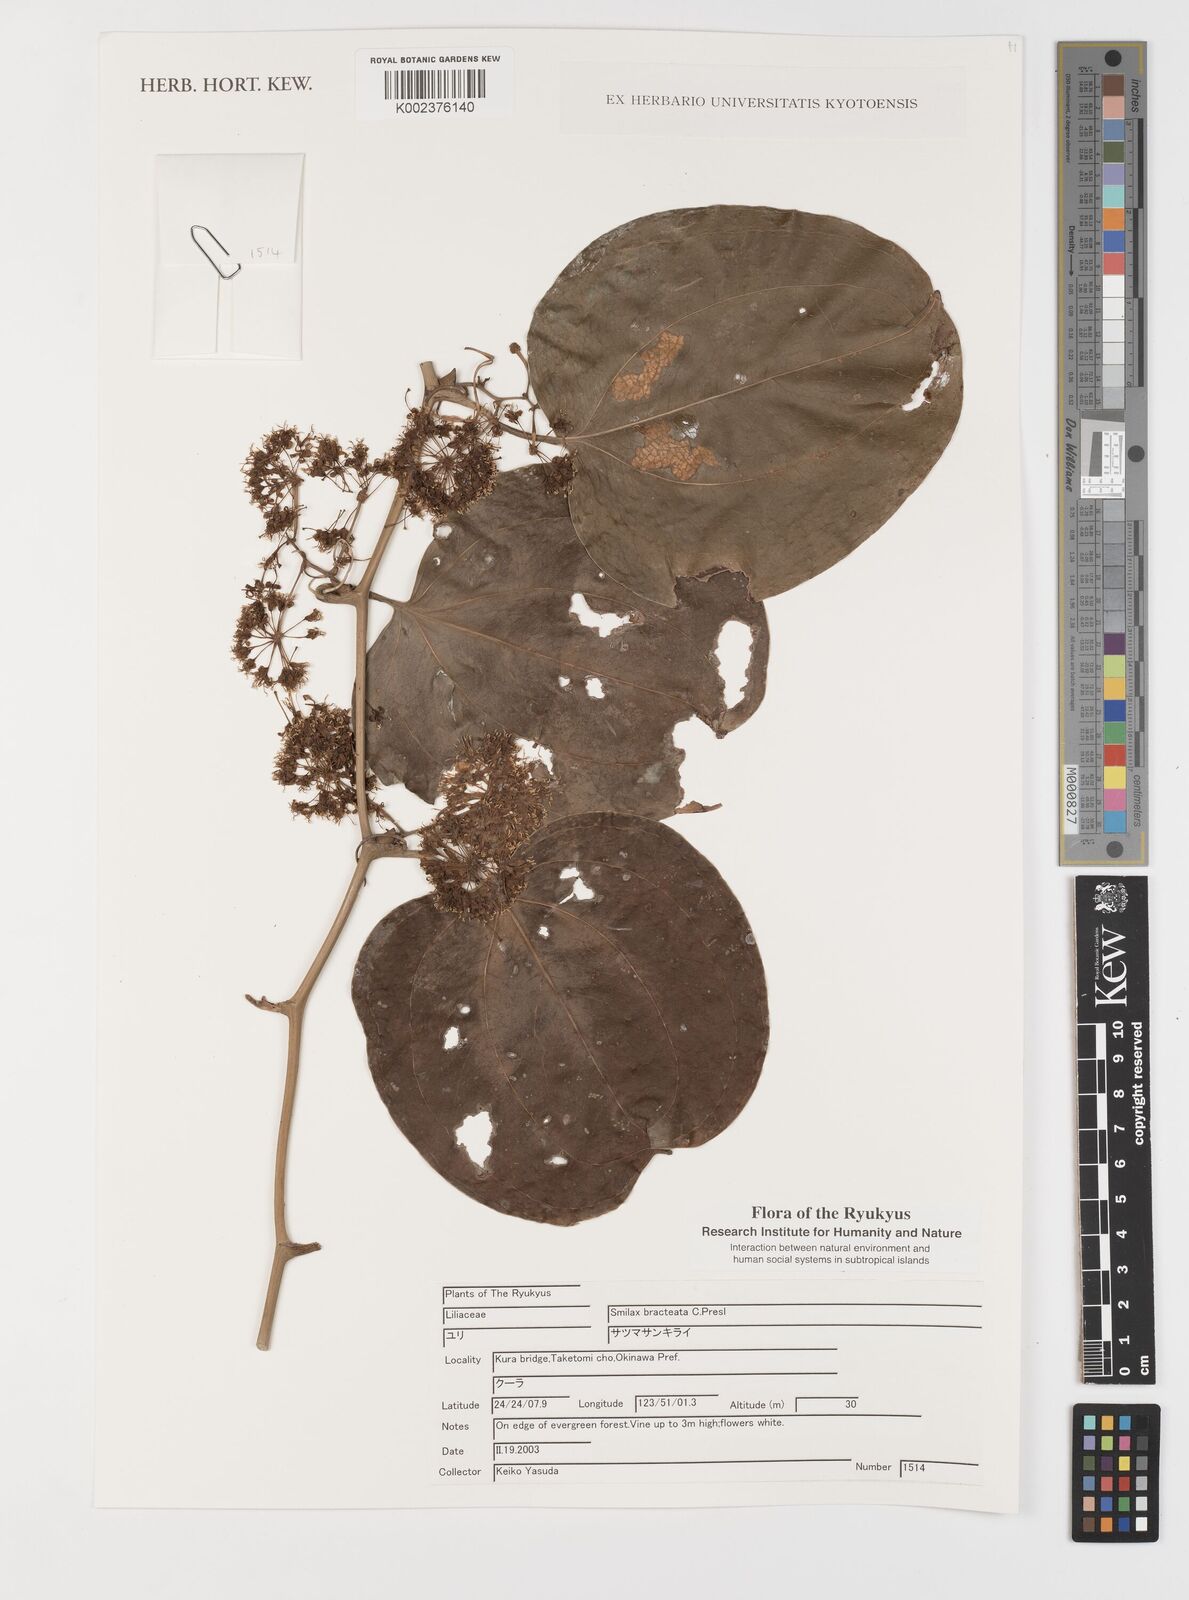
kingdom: Plantae
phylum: Tracheophyta
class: Liliopsida
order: Liliales
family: Smilacaceae
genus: Smilax
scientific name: Smilax bracteata
